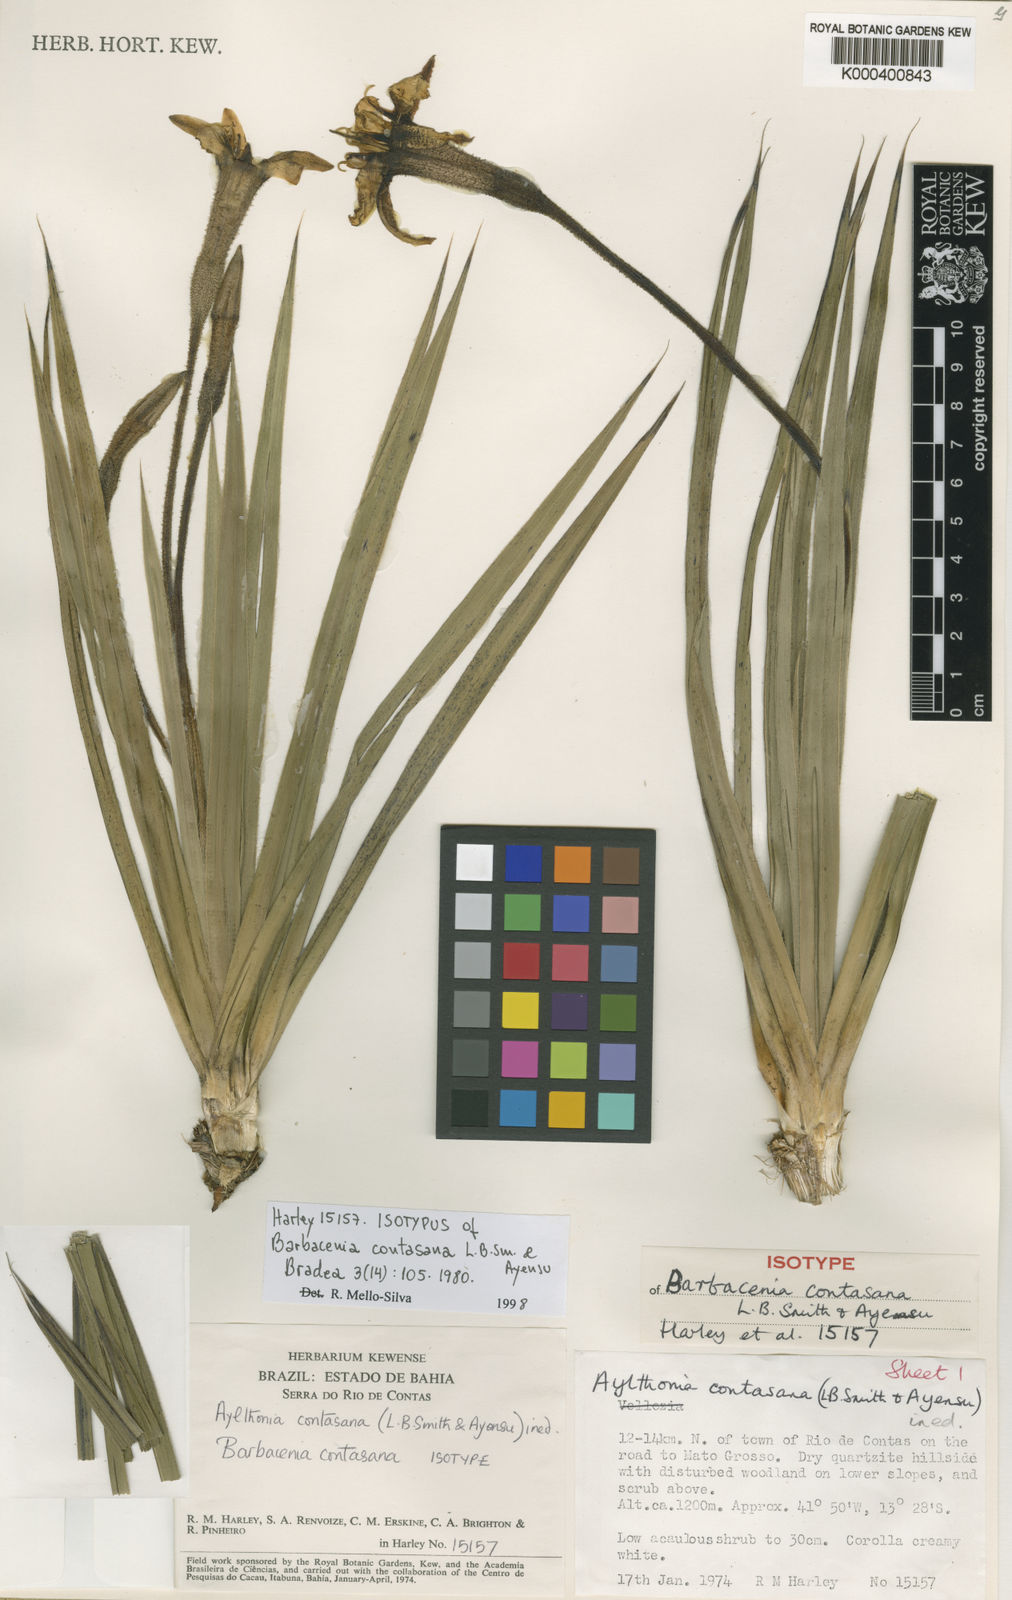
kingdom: Plantae
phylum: Tracheophyta
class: Liliopsida
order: Pandanales
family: Velloziaceae
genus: Barbacenia
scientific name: Barbacenia contasana
